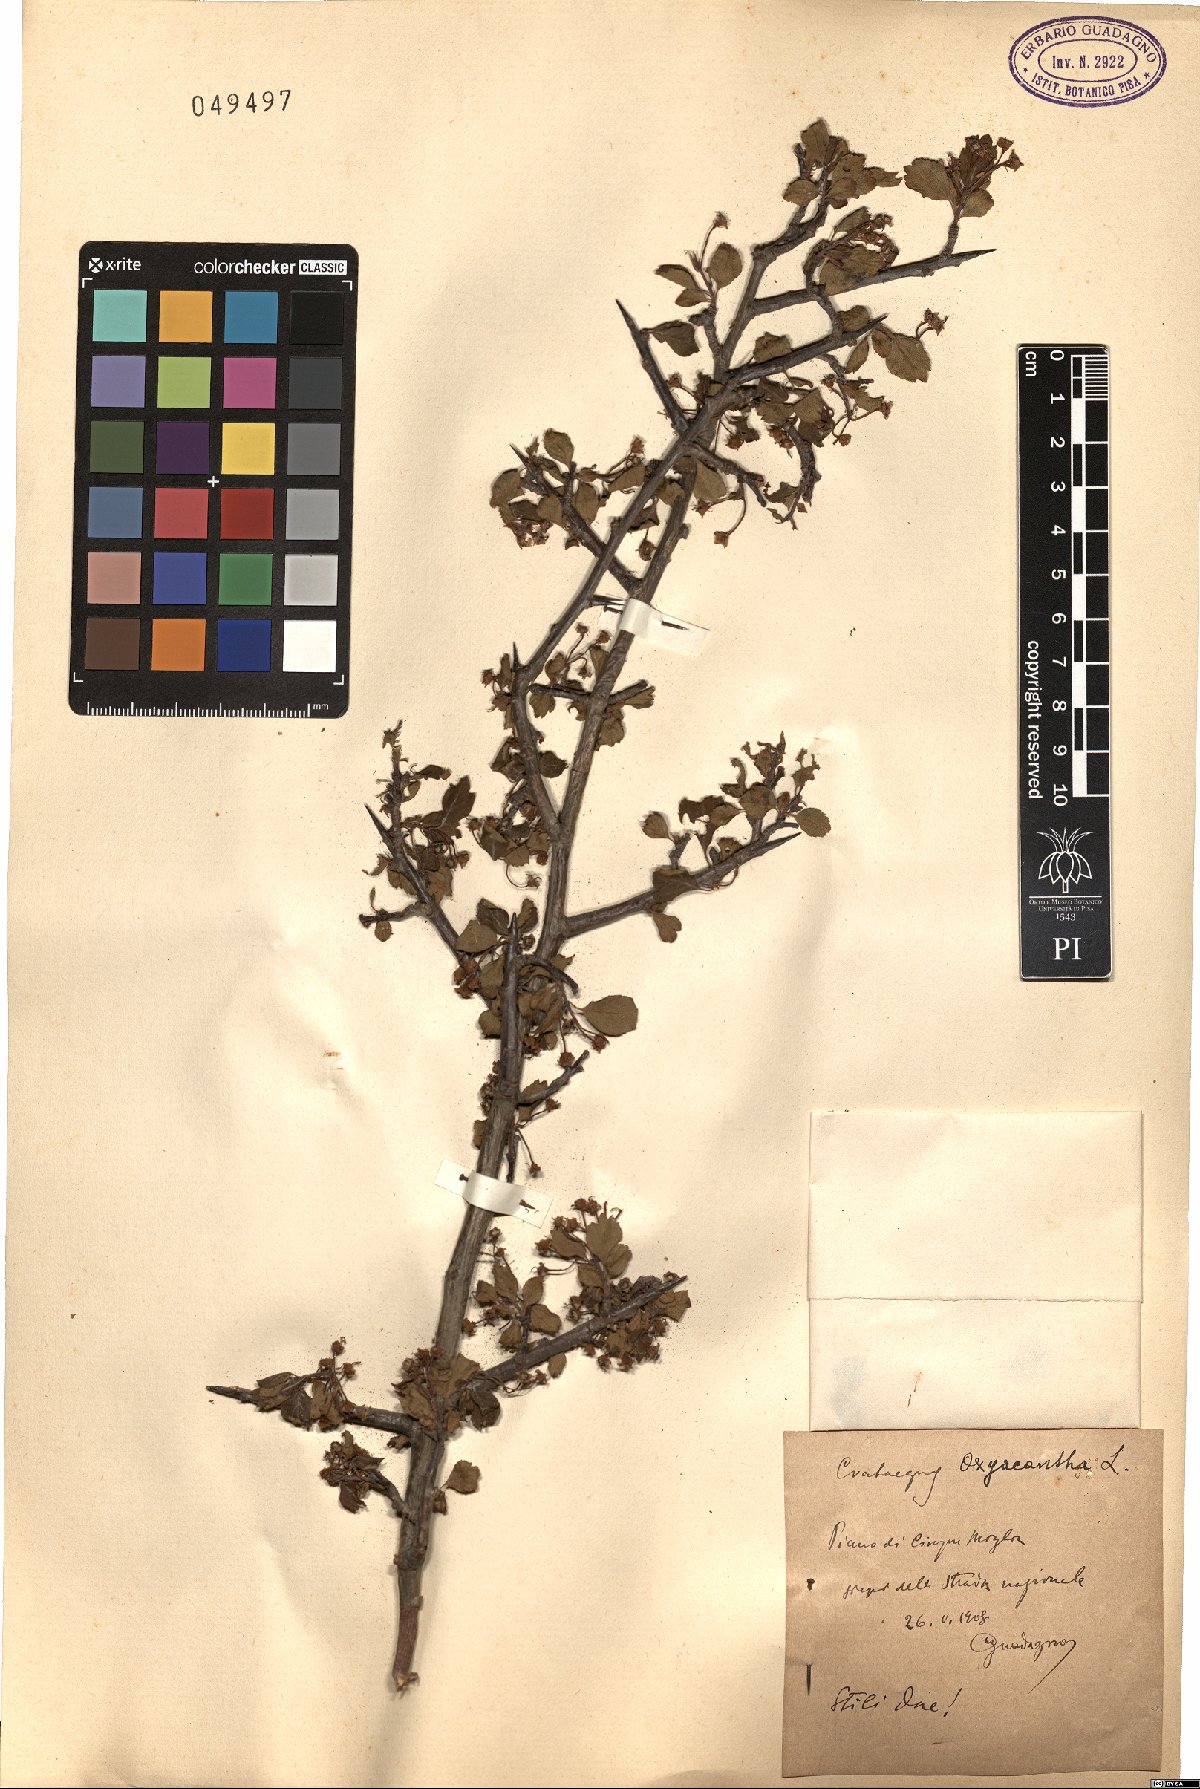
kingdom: Plantae
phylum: Tracheophyta
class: Magnoliopsida
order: Rosales
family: Rosaceae
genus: Crataegus
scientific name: Crataegus monogyna
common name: Hawthorn
